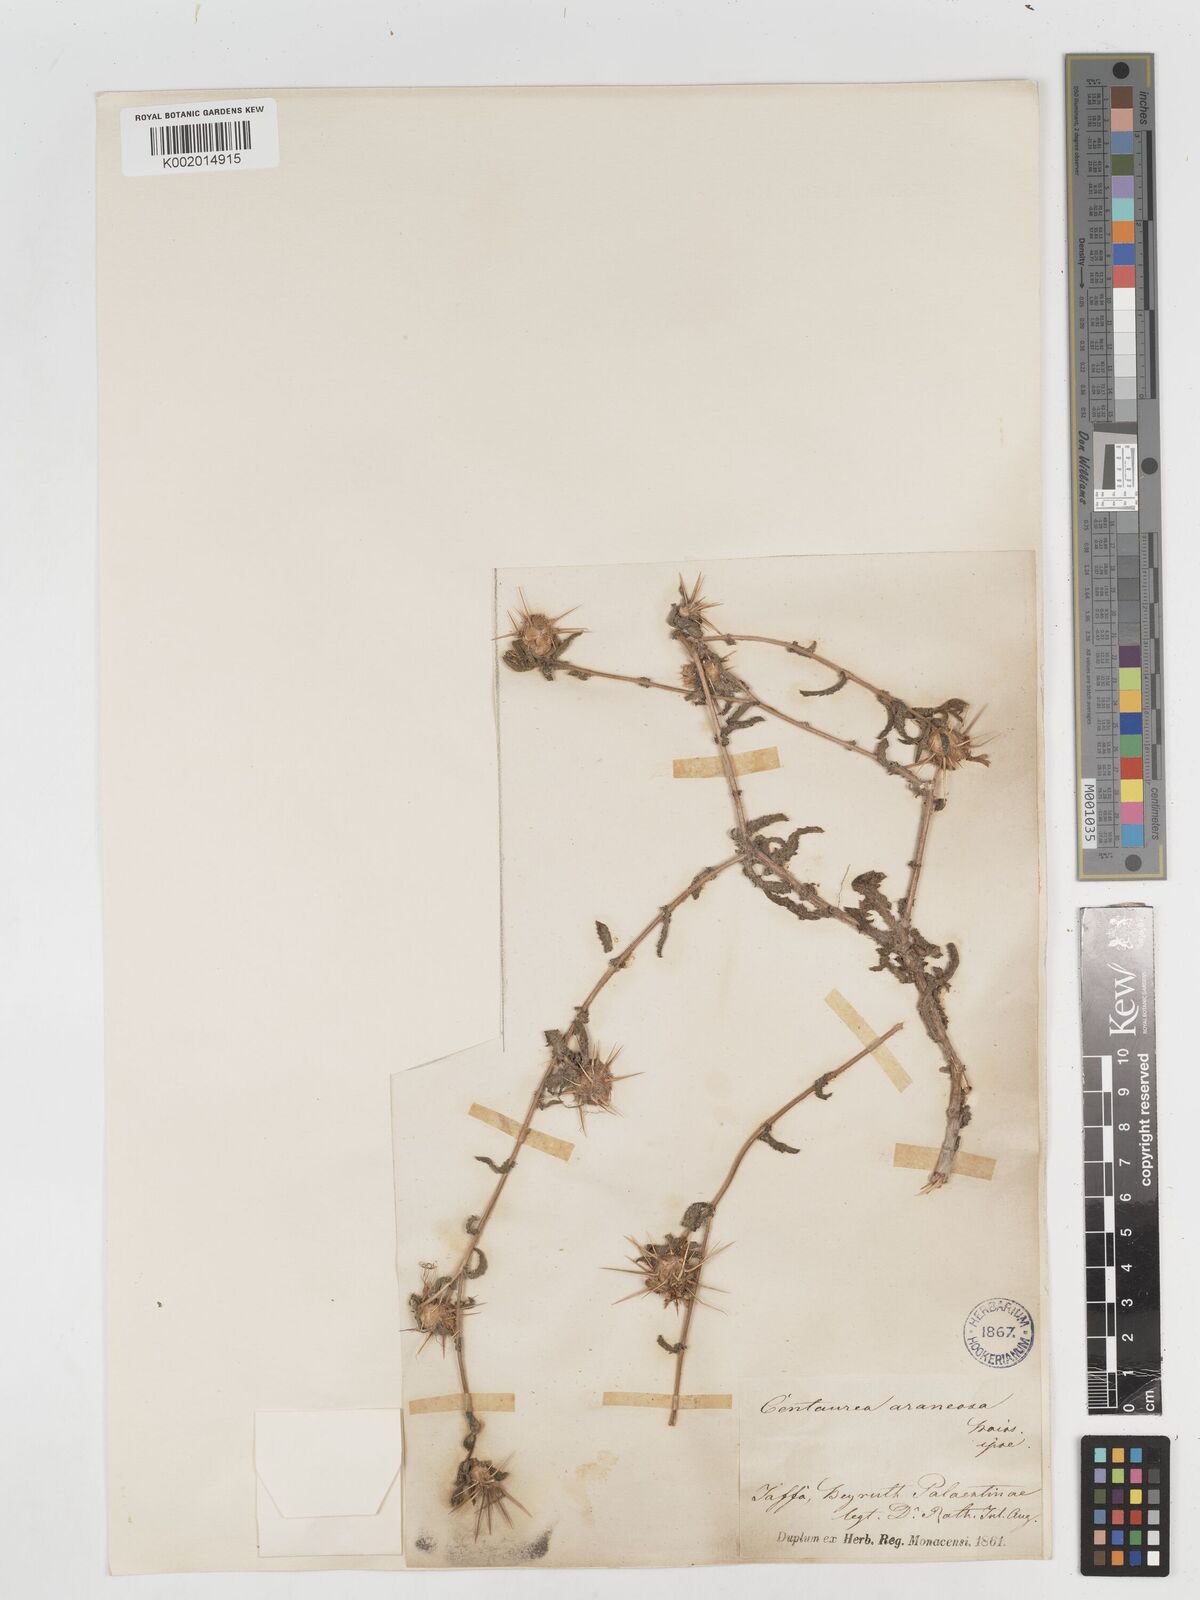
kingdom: Plantae
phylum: Tracheophyta
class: Magnoliopsida
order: Asterales
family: Asteraceae
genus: Centaurea
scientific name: Centaurea procurrens
